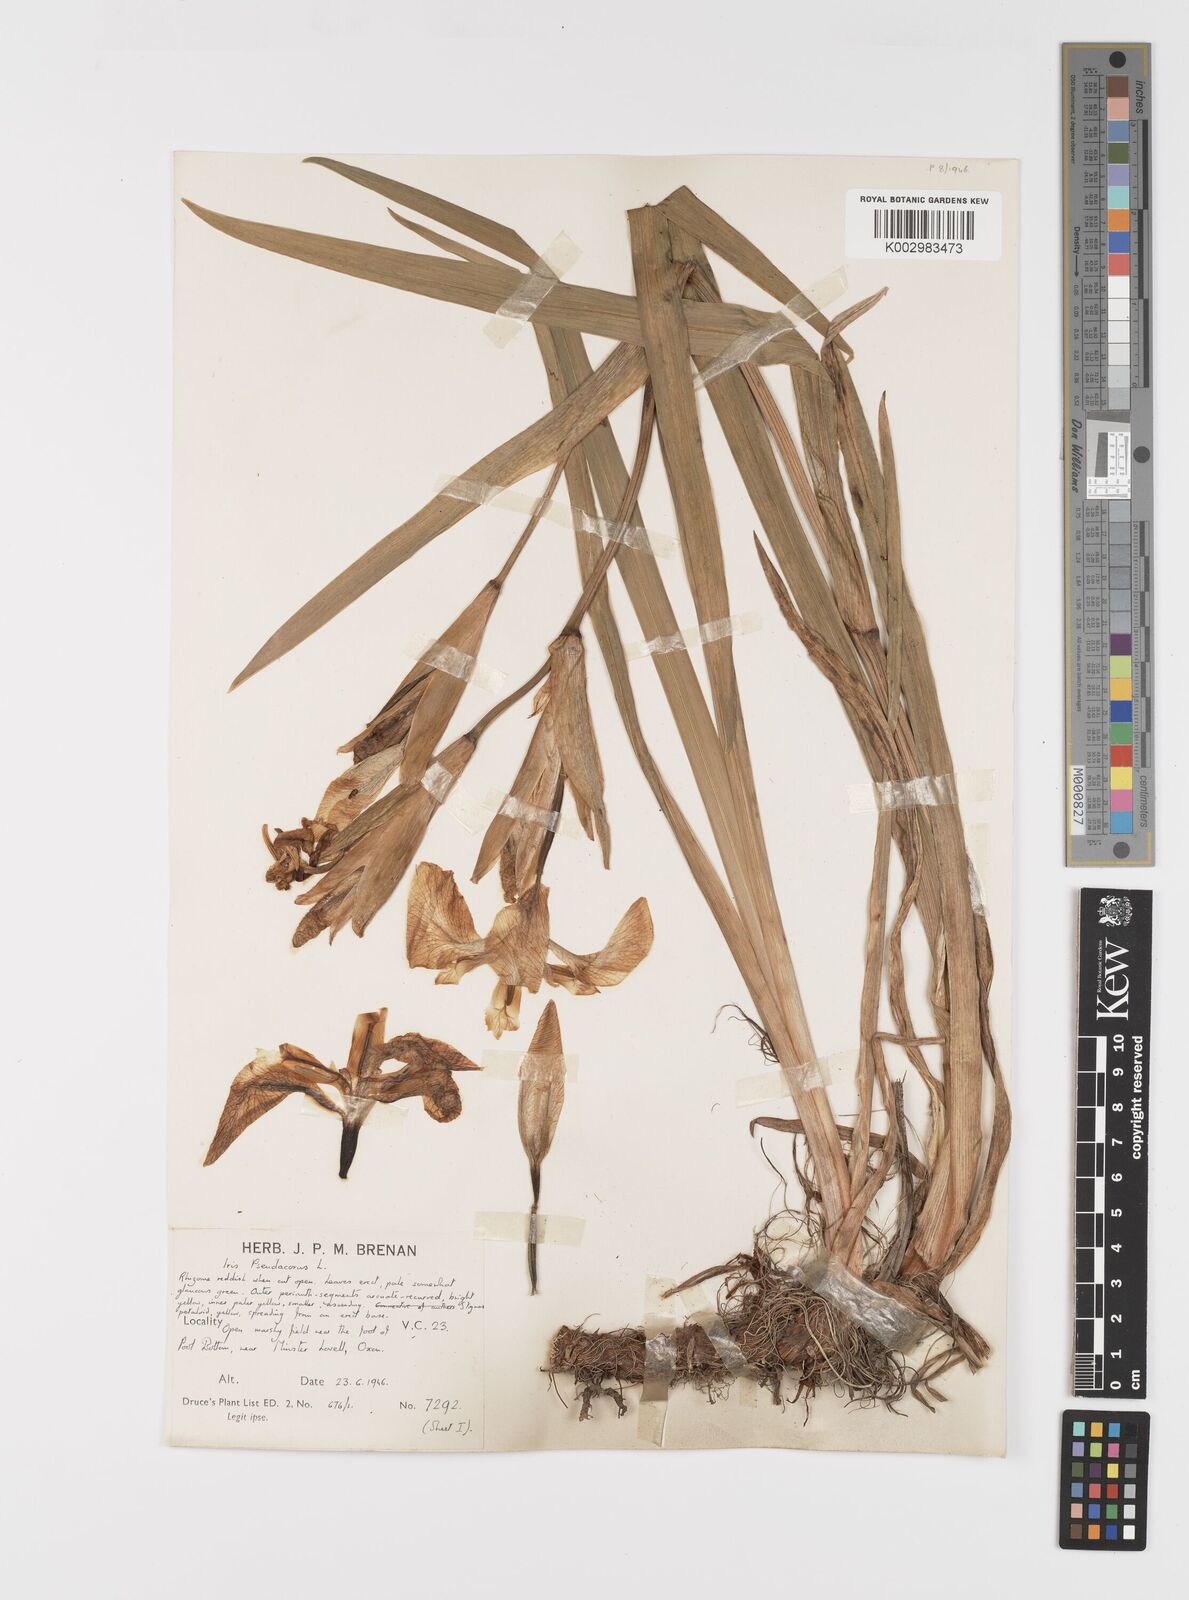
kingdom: Plantae
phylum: Tracheophyta
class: Liliopsida
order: Asparagales
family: Iridaceae
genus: Iris
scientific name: Iris pseudacorus
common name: Yellow flag
